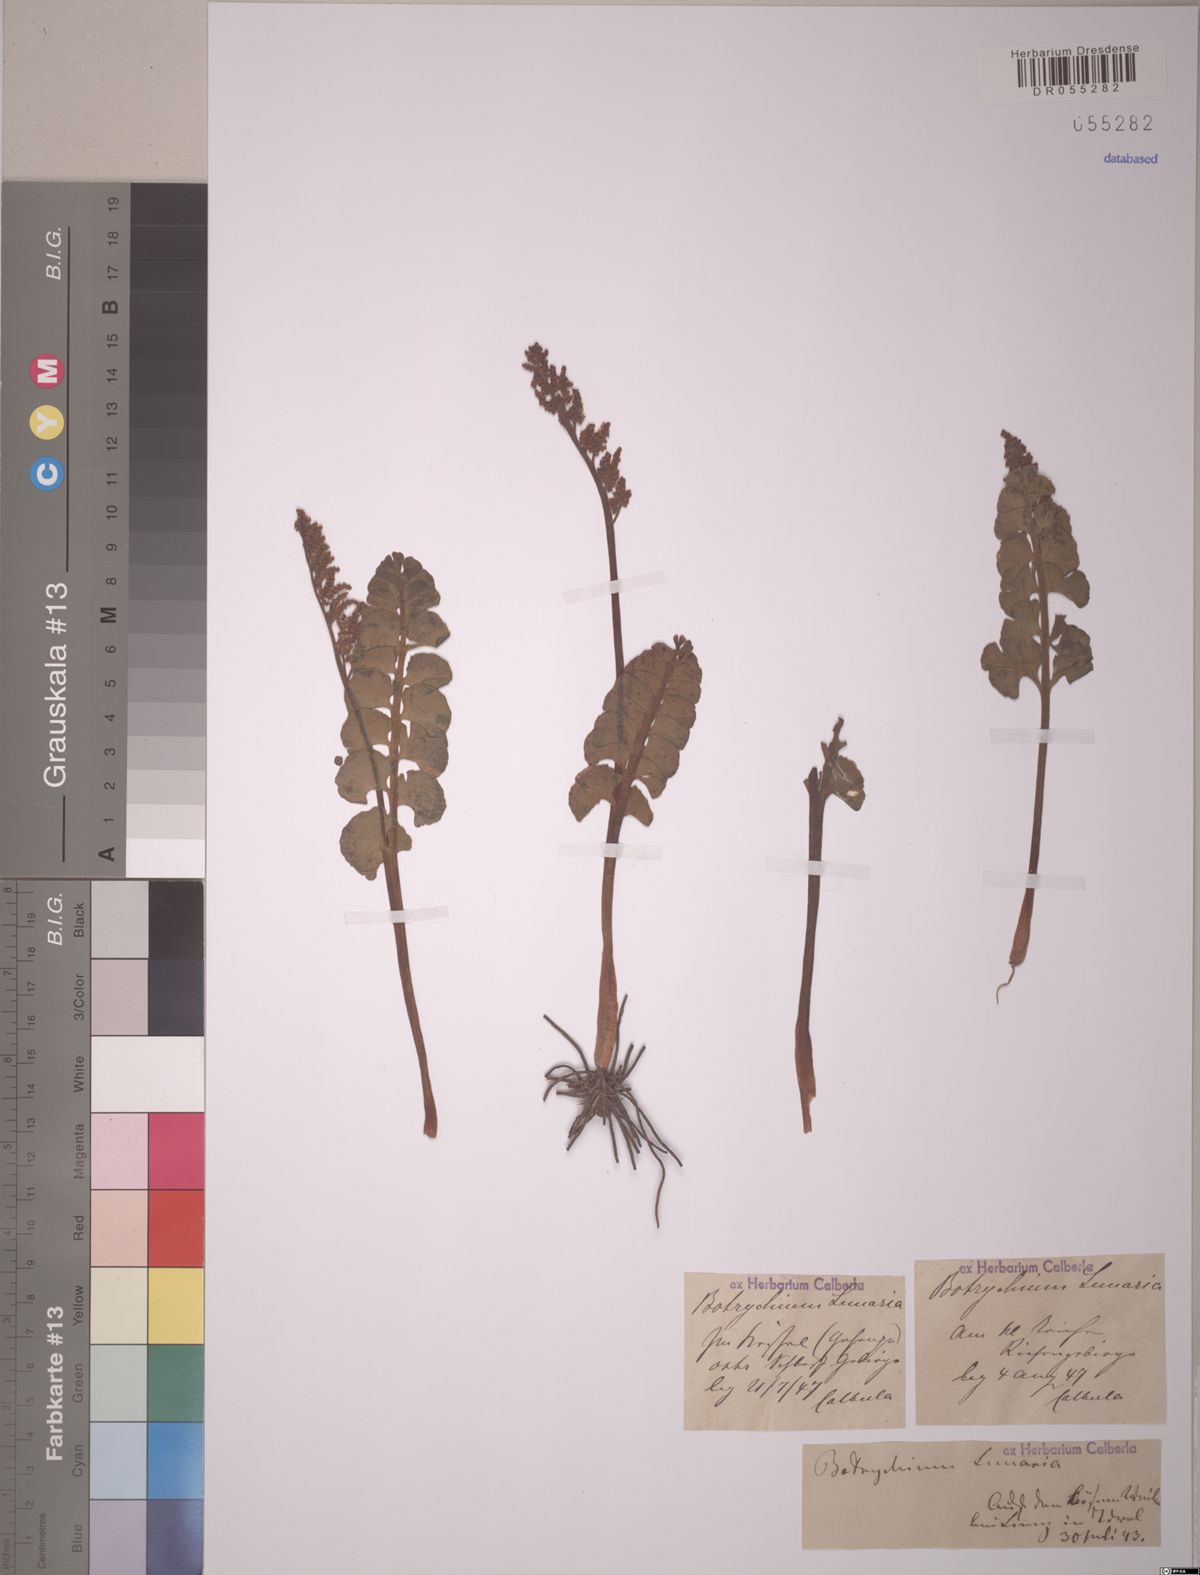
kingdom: Plantae
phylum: Tracheophyta
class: Polypodiopsida
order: Ophioglossales
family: Ophioglossaceae
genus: Botrychium
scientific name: Botrychium lunaria
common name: Moonwort
